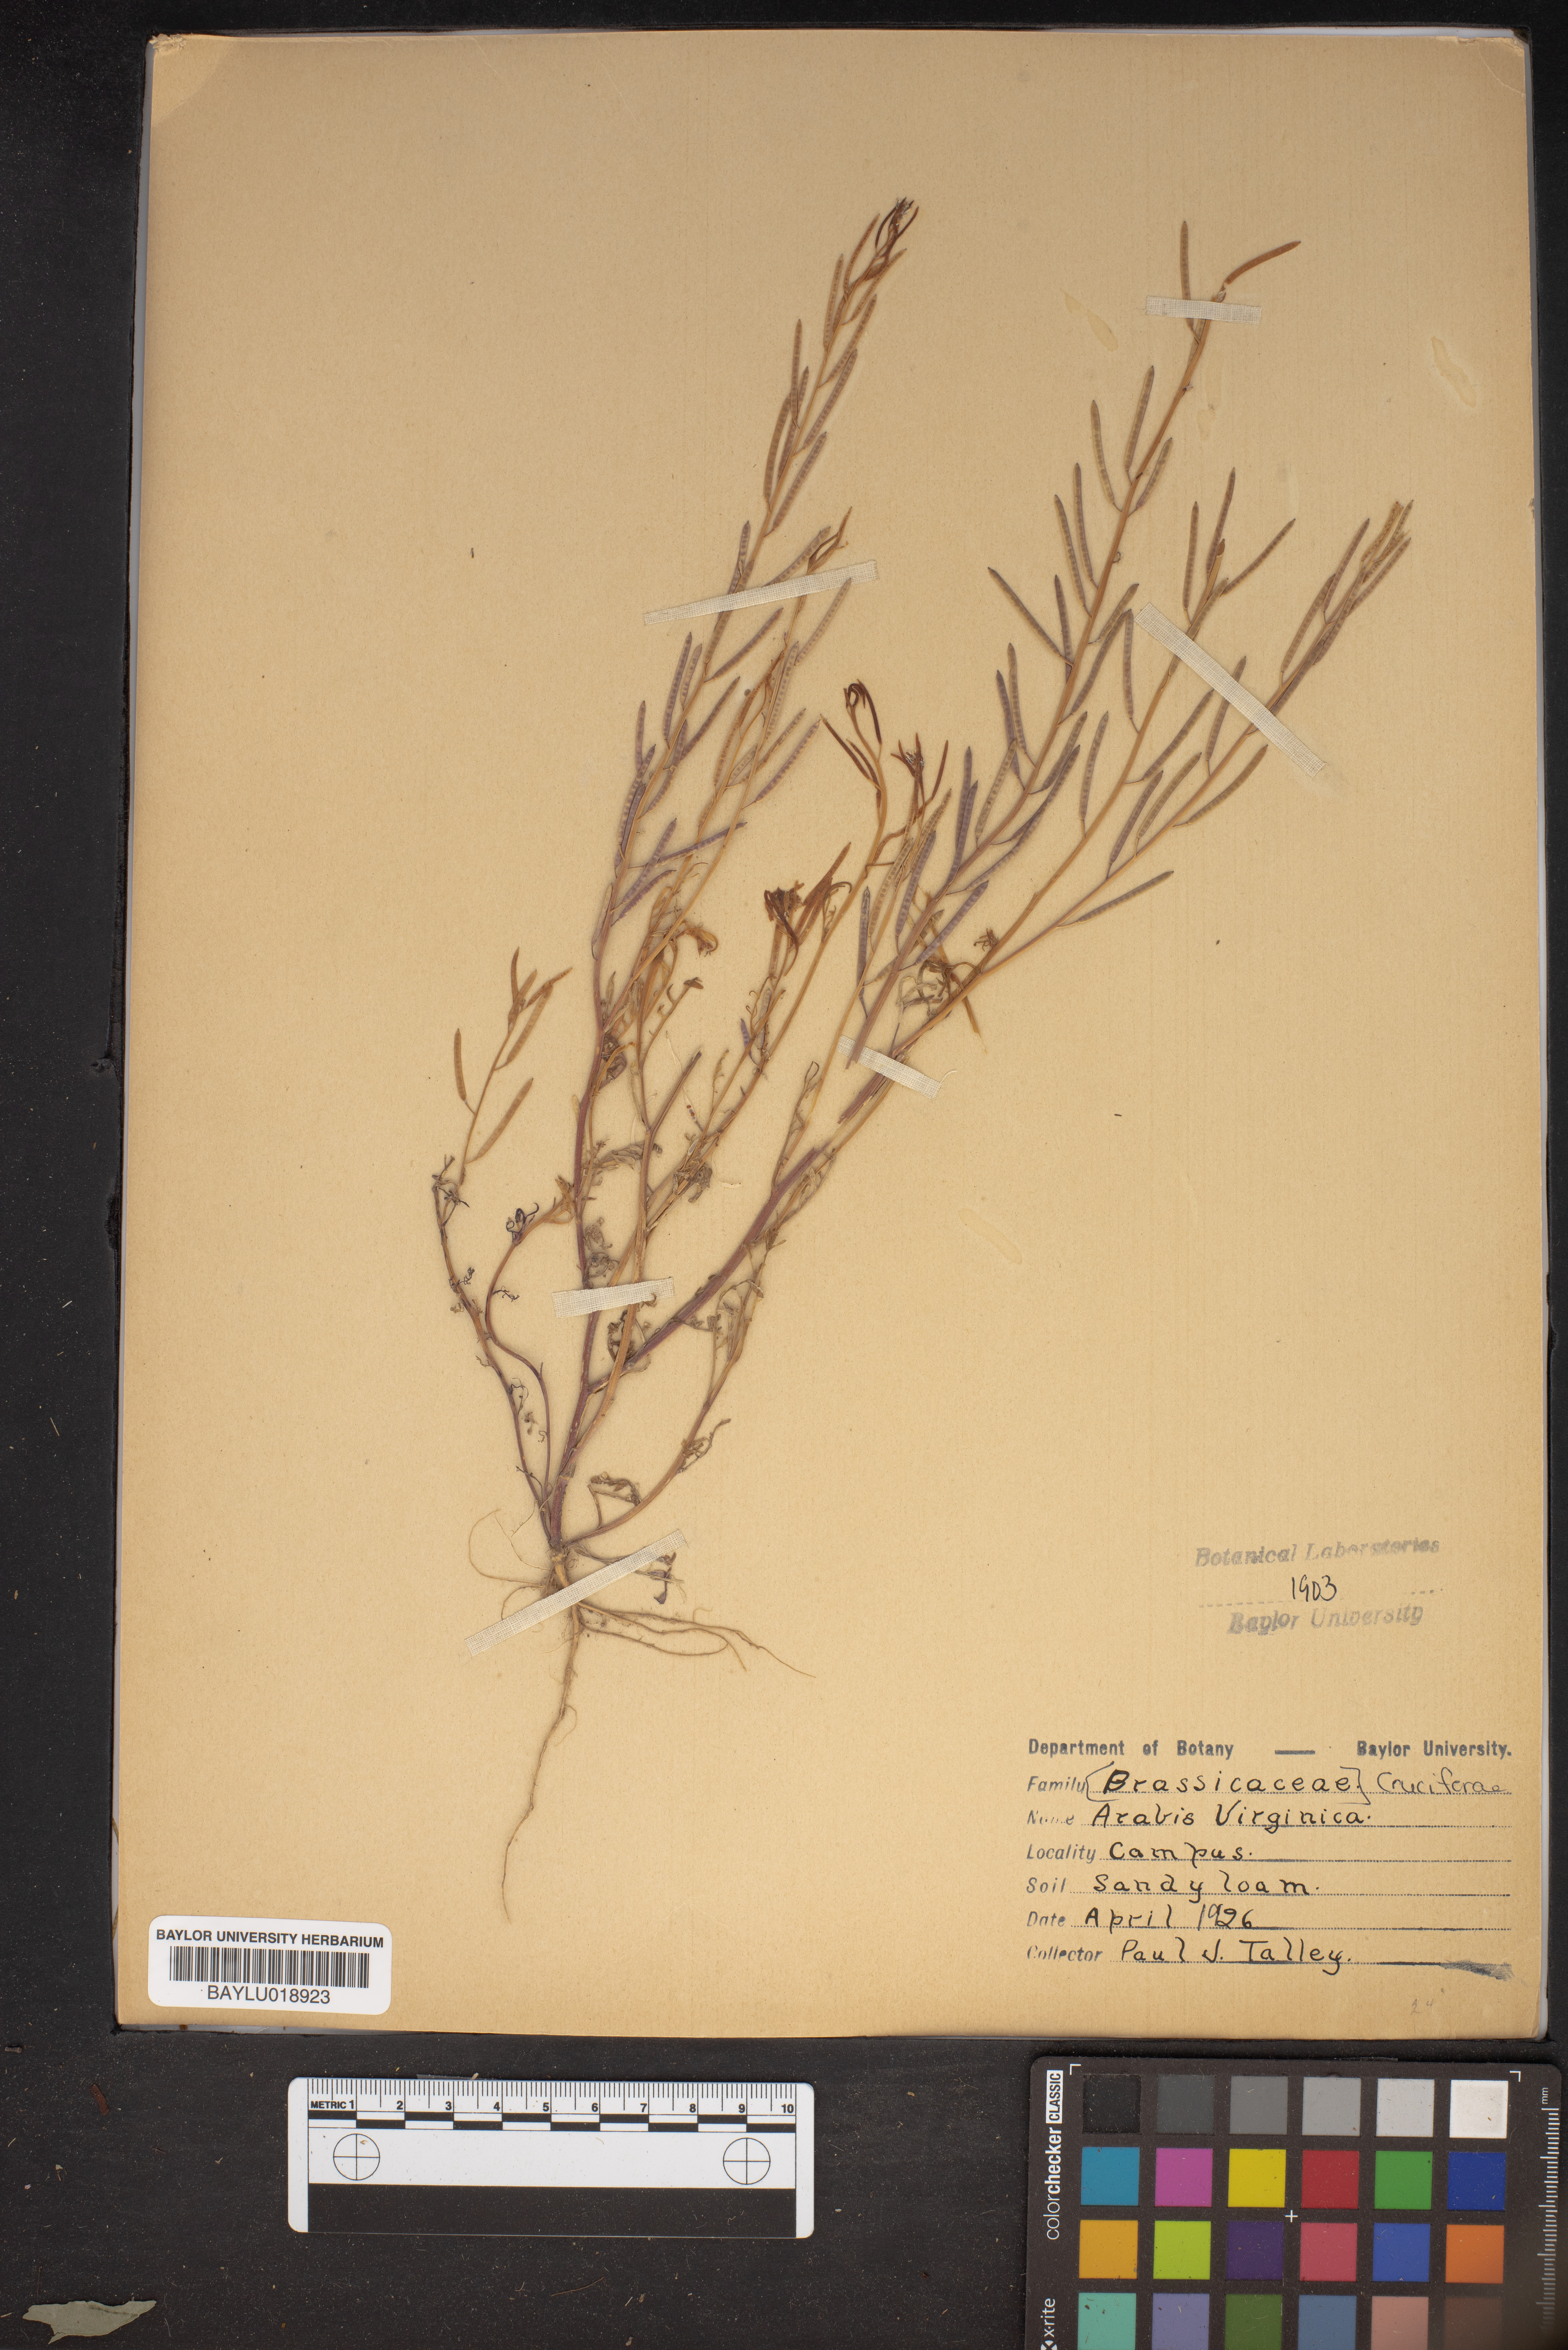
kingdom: Plantae
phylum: Tracheophyta
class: Magnoliopsida
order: Brassicales
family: Brassicaceae
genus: Planodes
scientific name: Planodes virginicum
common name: Virginia cress
